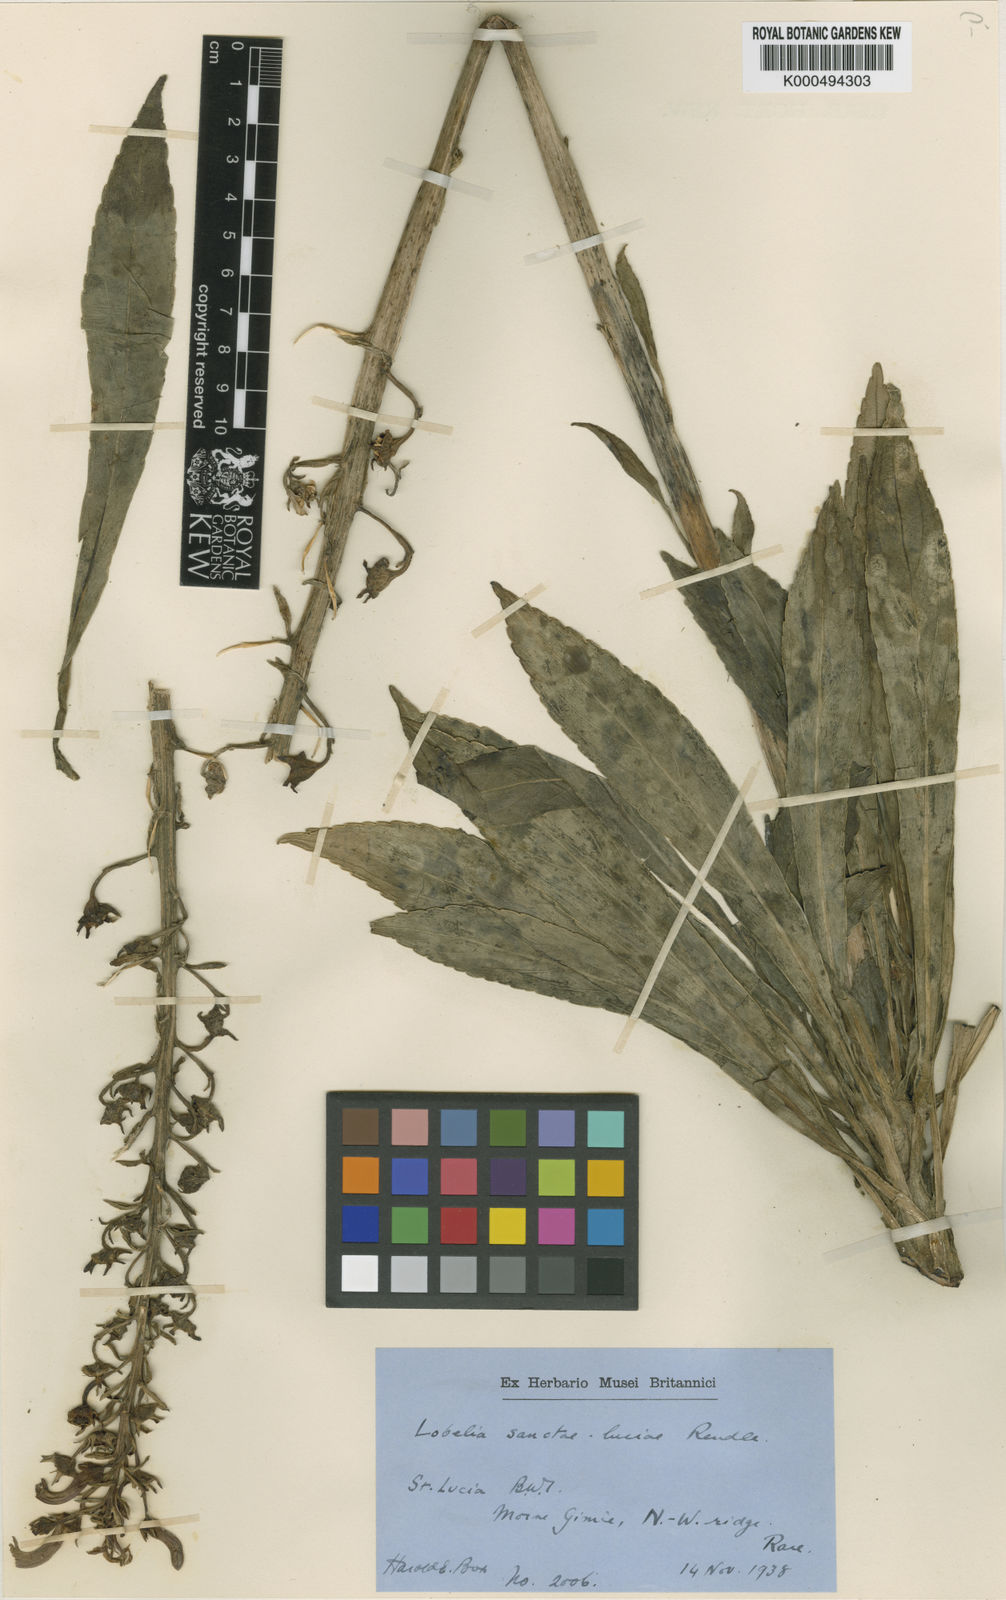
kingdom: Plantae
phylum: Tracheophyta
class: Magnoliopsida
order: Asterales
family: Campanulaceae
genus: Lobelia
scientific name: Lobelia santa-luciae
